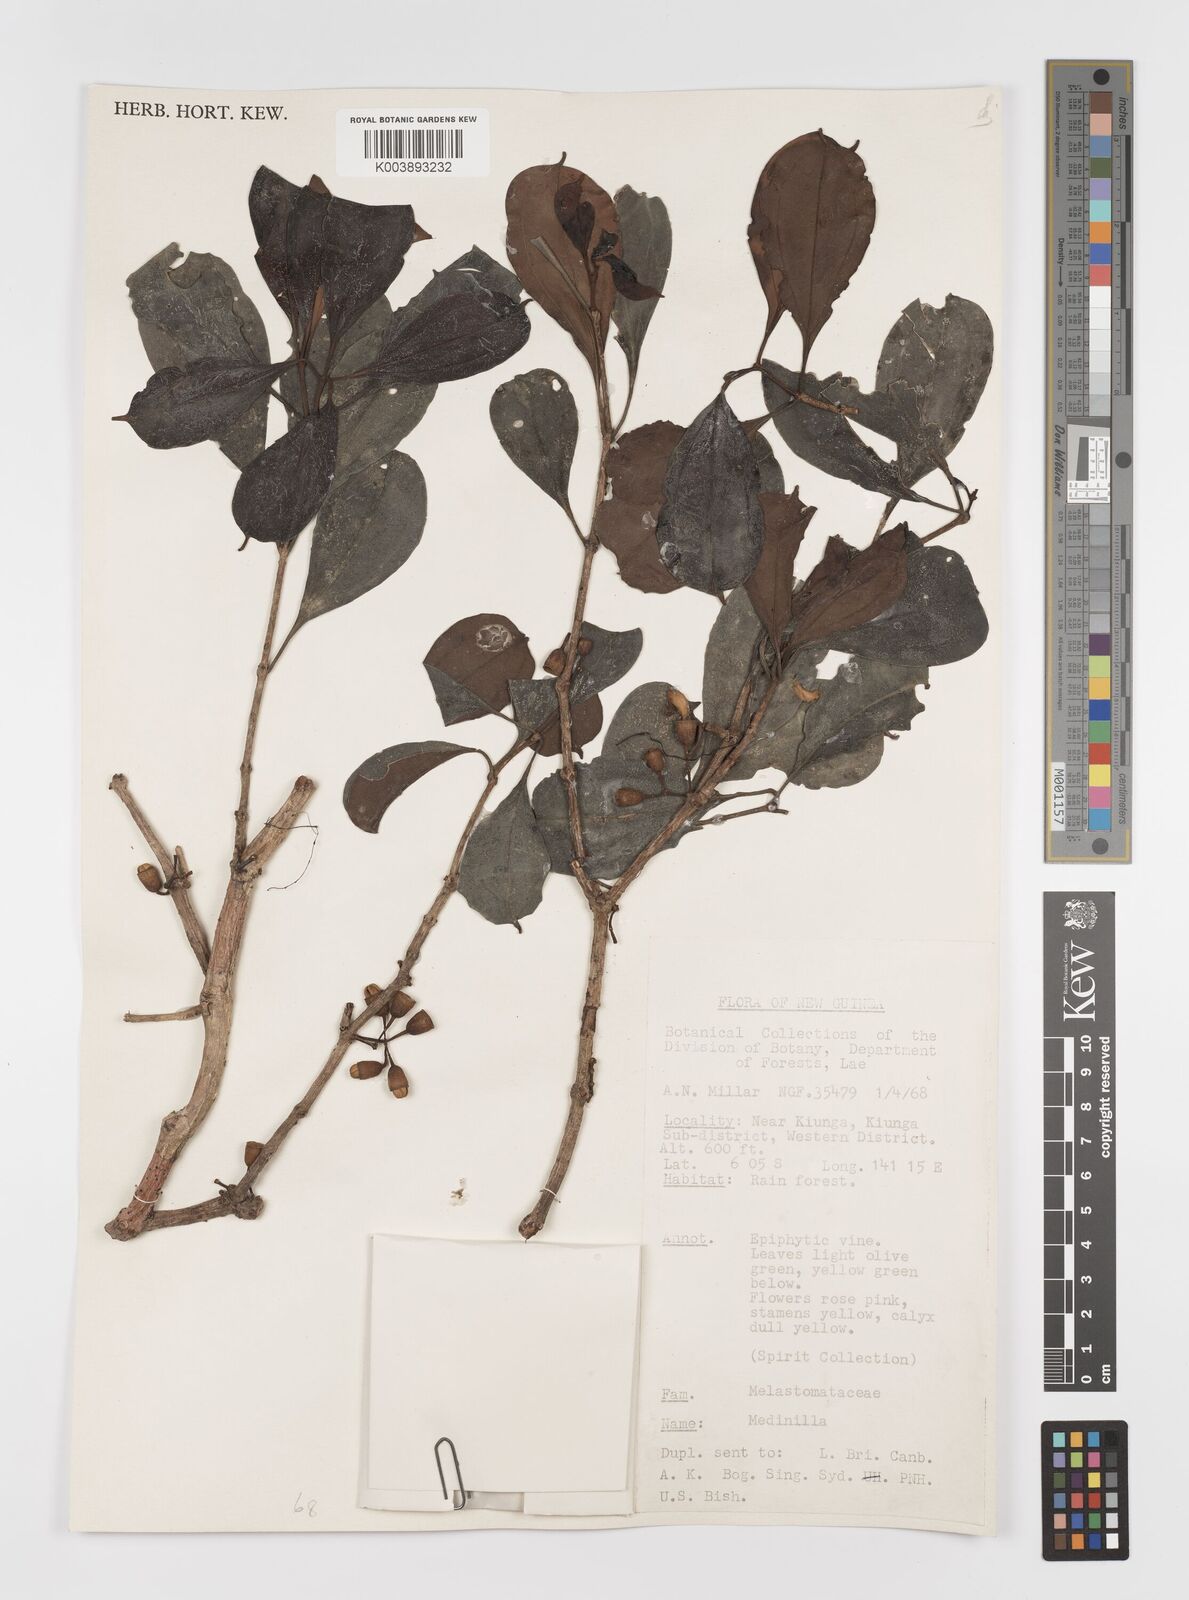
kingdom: Plantae
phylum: Tracheophyta
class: Magnoliopsida
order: Myrtales
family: Melastomataceae
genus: Medinilla
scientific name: Medinilla
